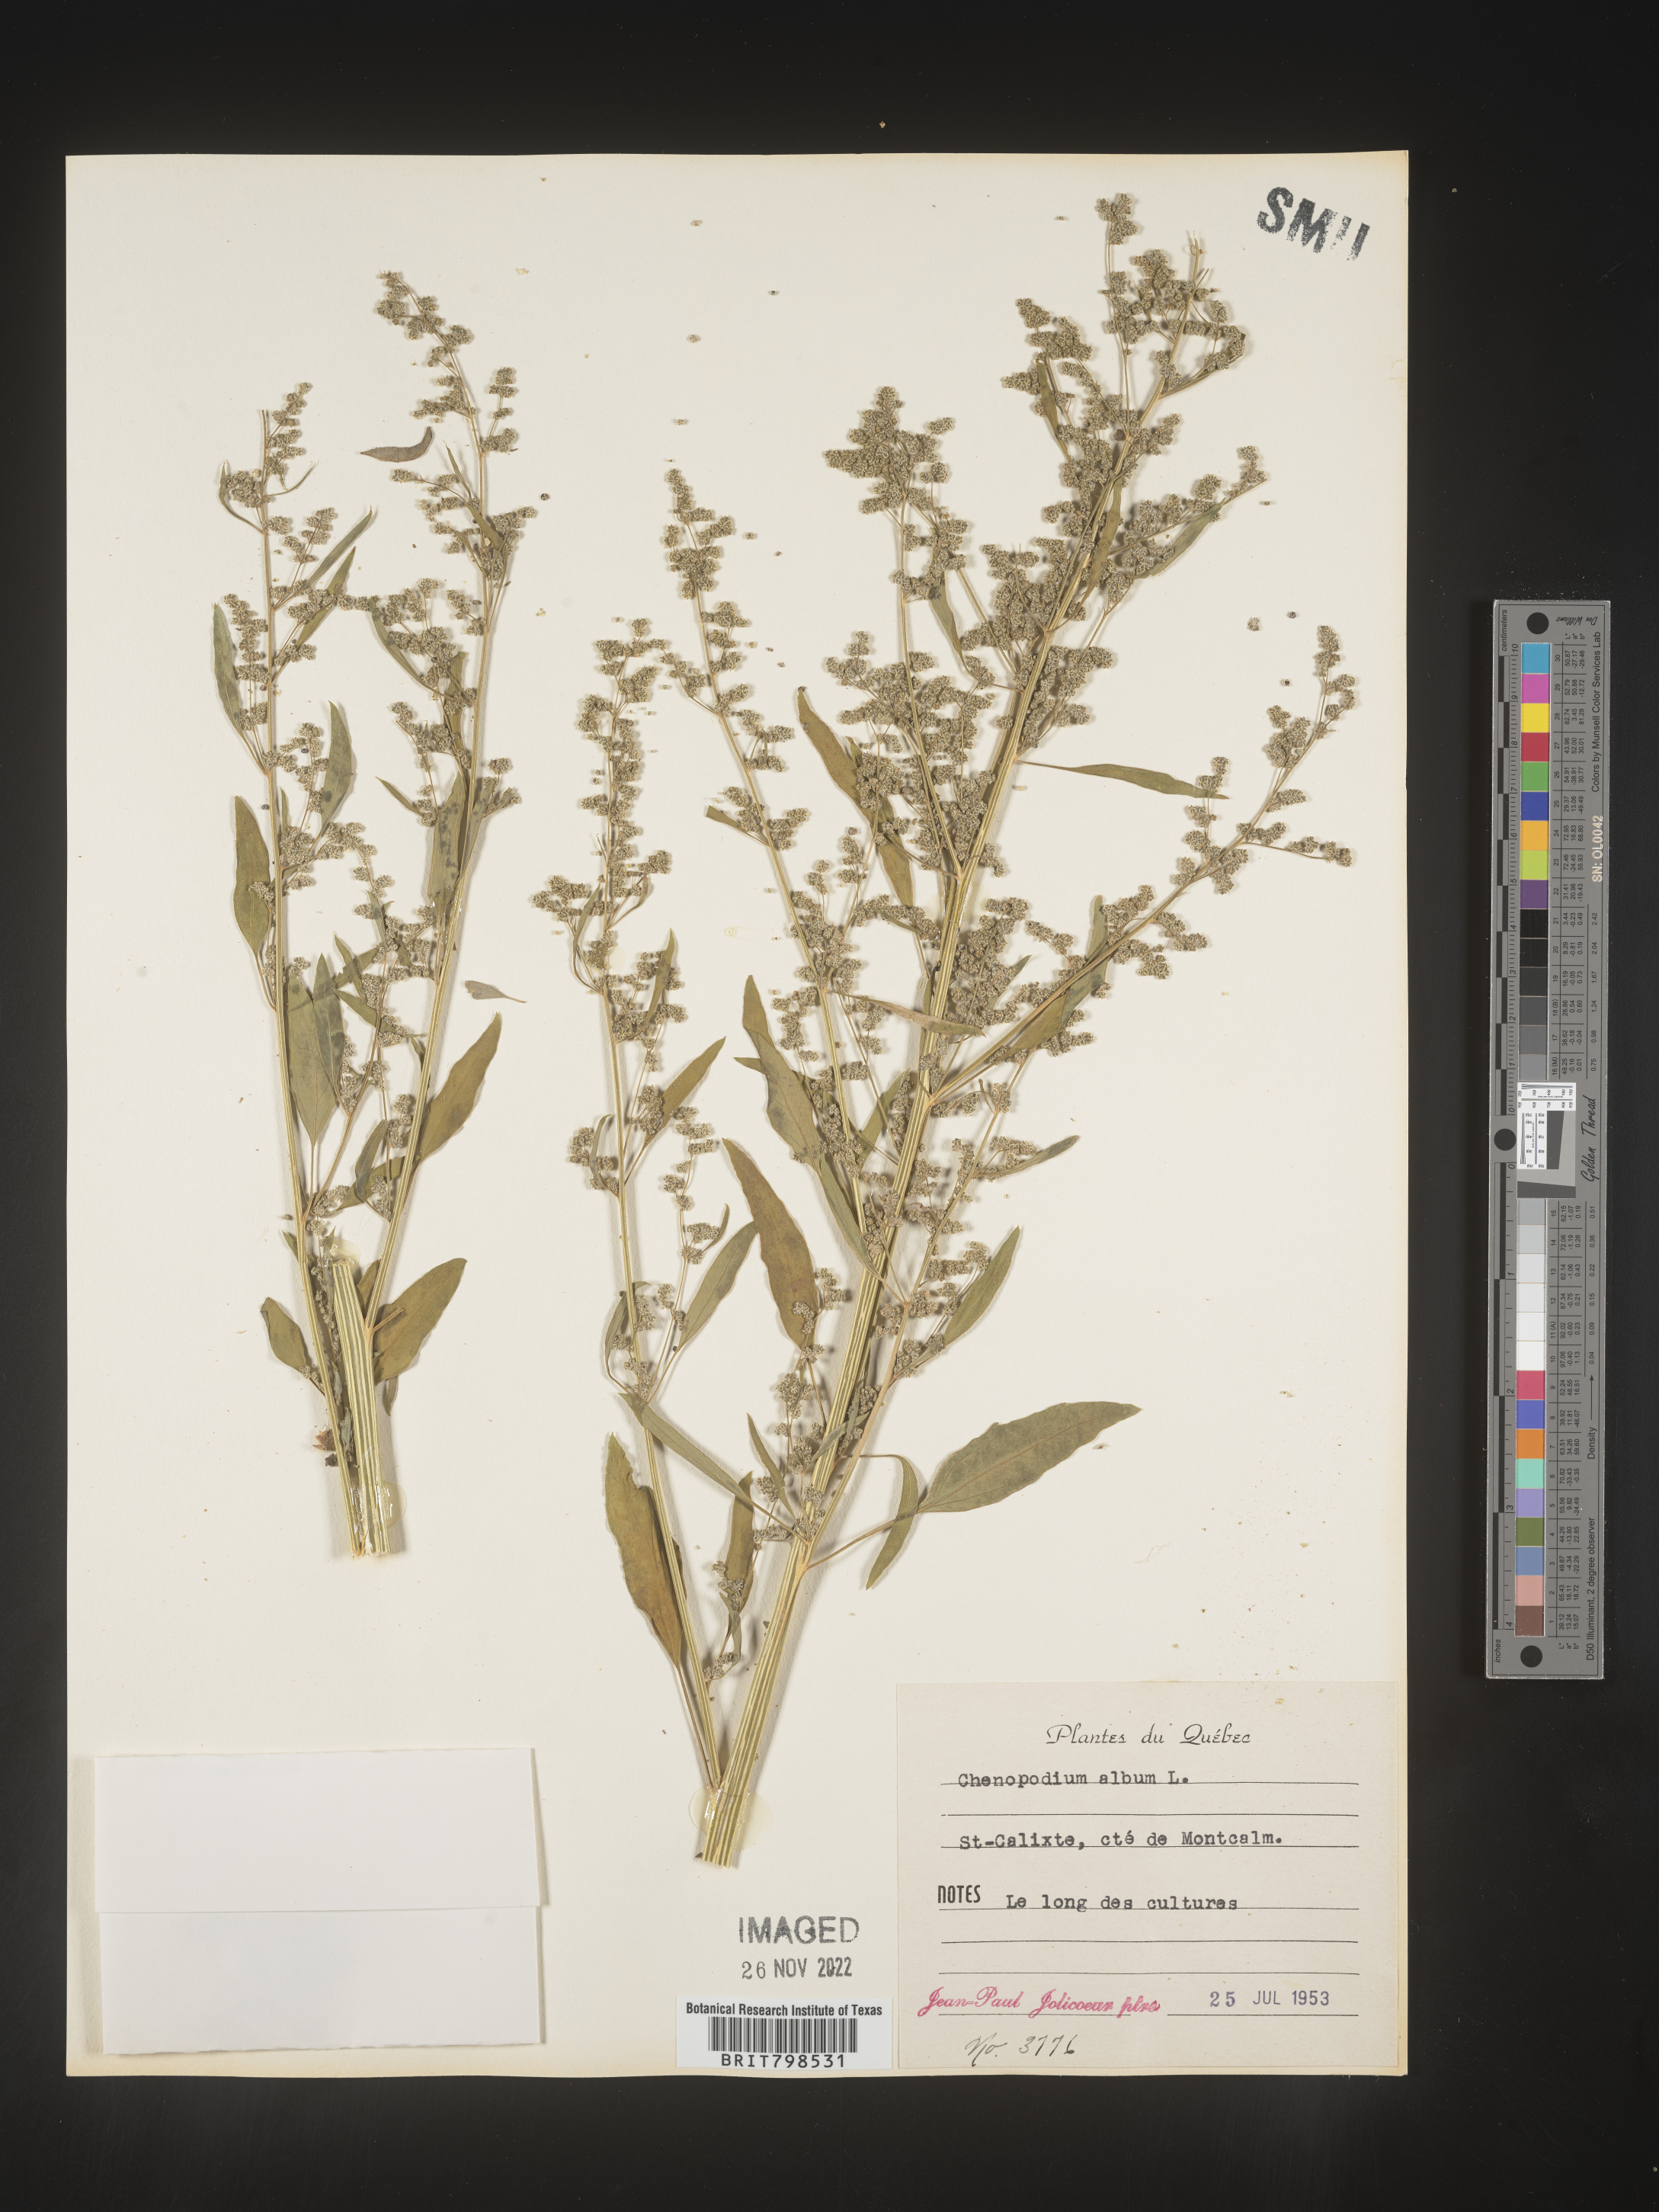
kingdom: Plantae
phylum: Tracheophyta
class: Magnoliopsida
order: Caryophyllales
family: Amaranthaceae
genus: Chenopodium
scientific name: Chenopodium album
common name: Fat-hen
